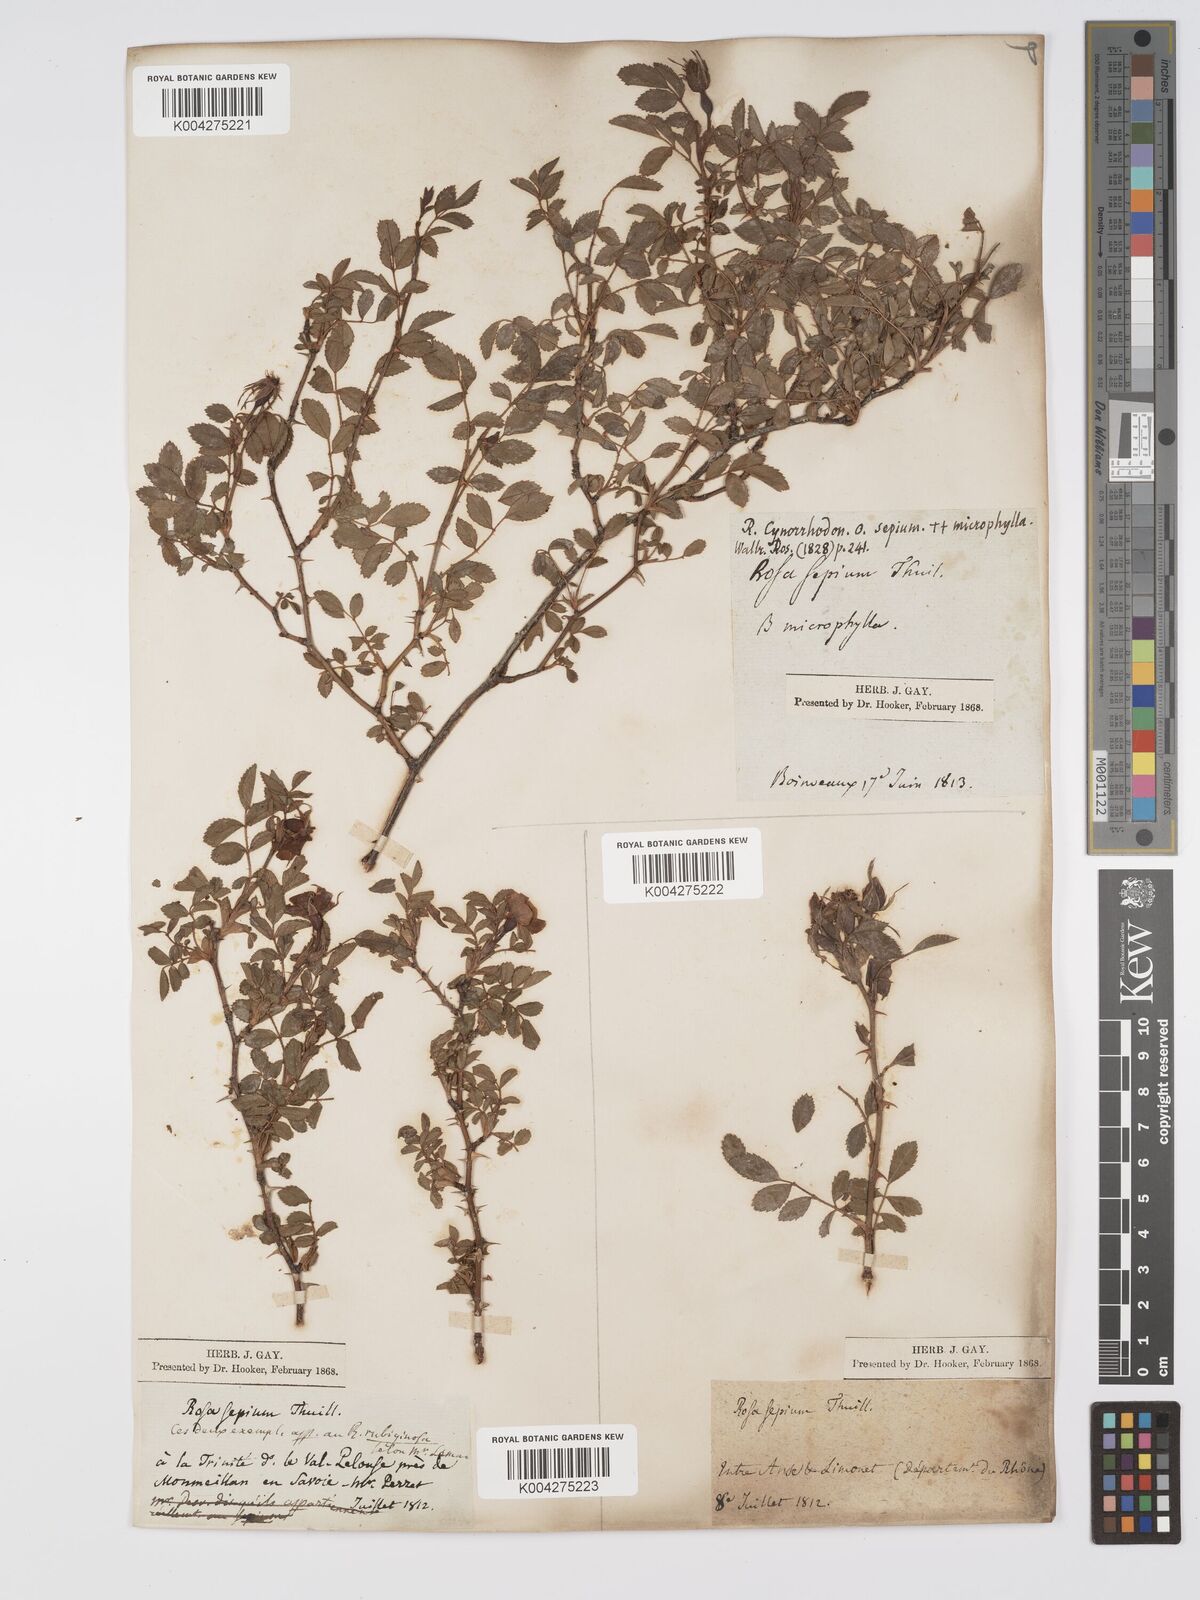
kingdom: Plantae
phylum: Tracheophyta
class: Magnoliopsida
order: Rosales
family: Rosaceae
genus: Rosa
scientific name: Rosa
